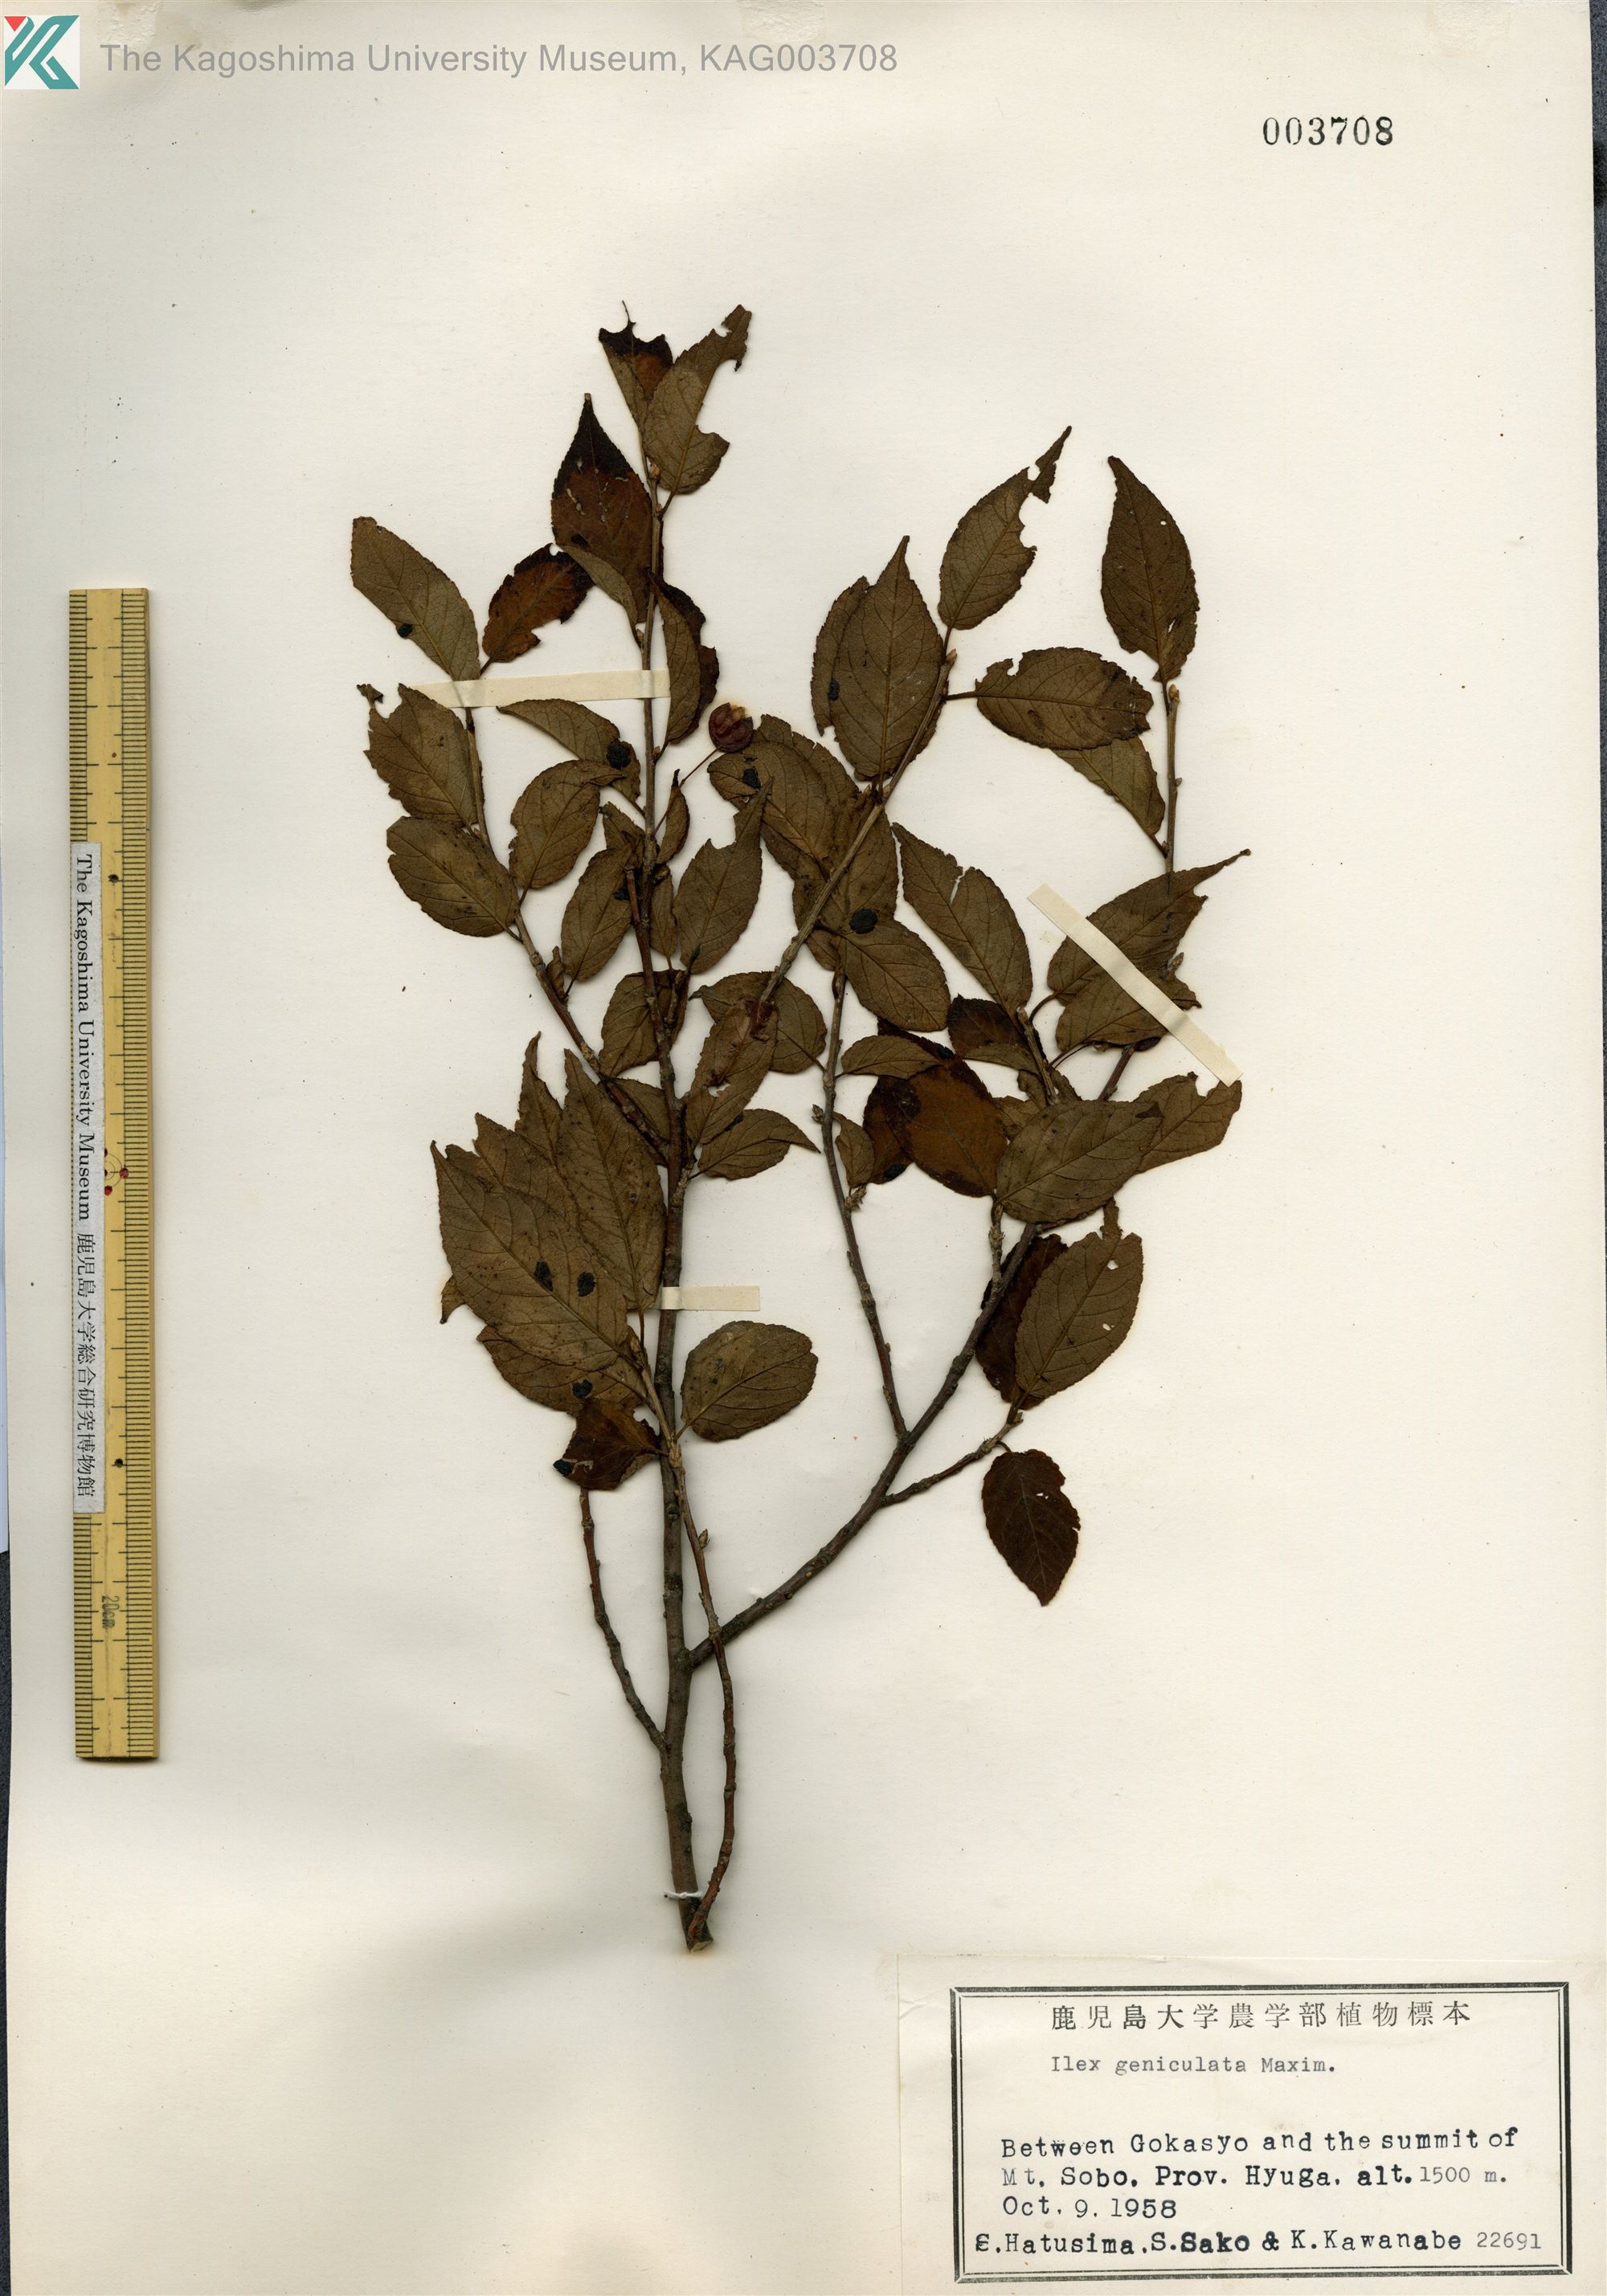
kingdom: Plantae
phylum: Tracheophyta
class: Magnoliopsida
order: Aquifoliales
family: Aquifoliaceae
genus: Ilex
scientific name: Ilex geniculata
